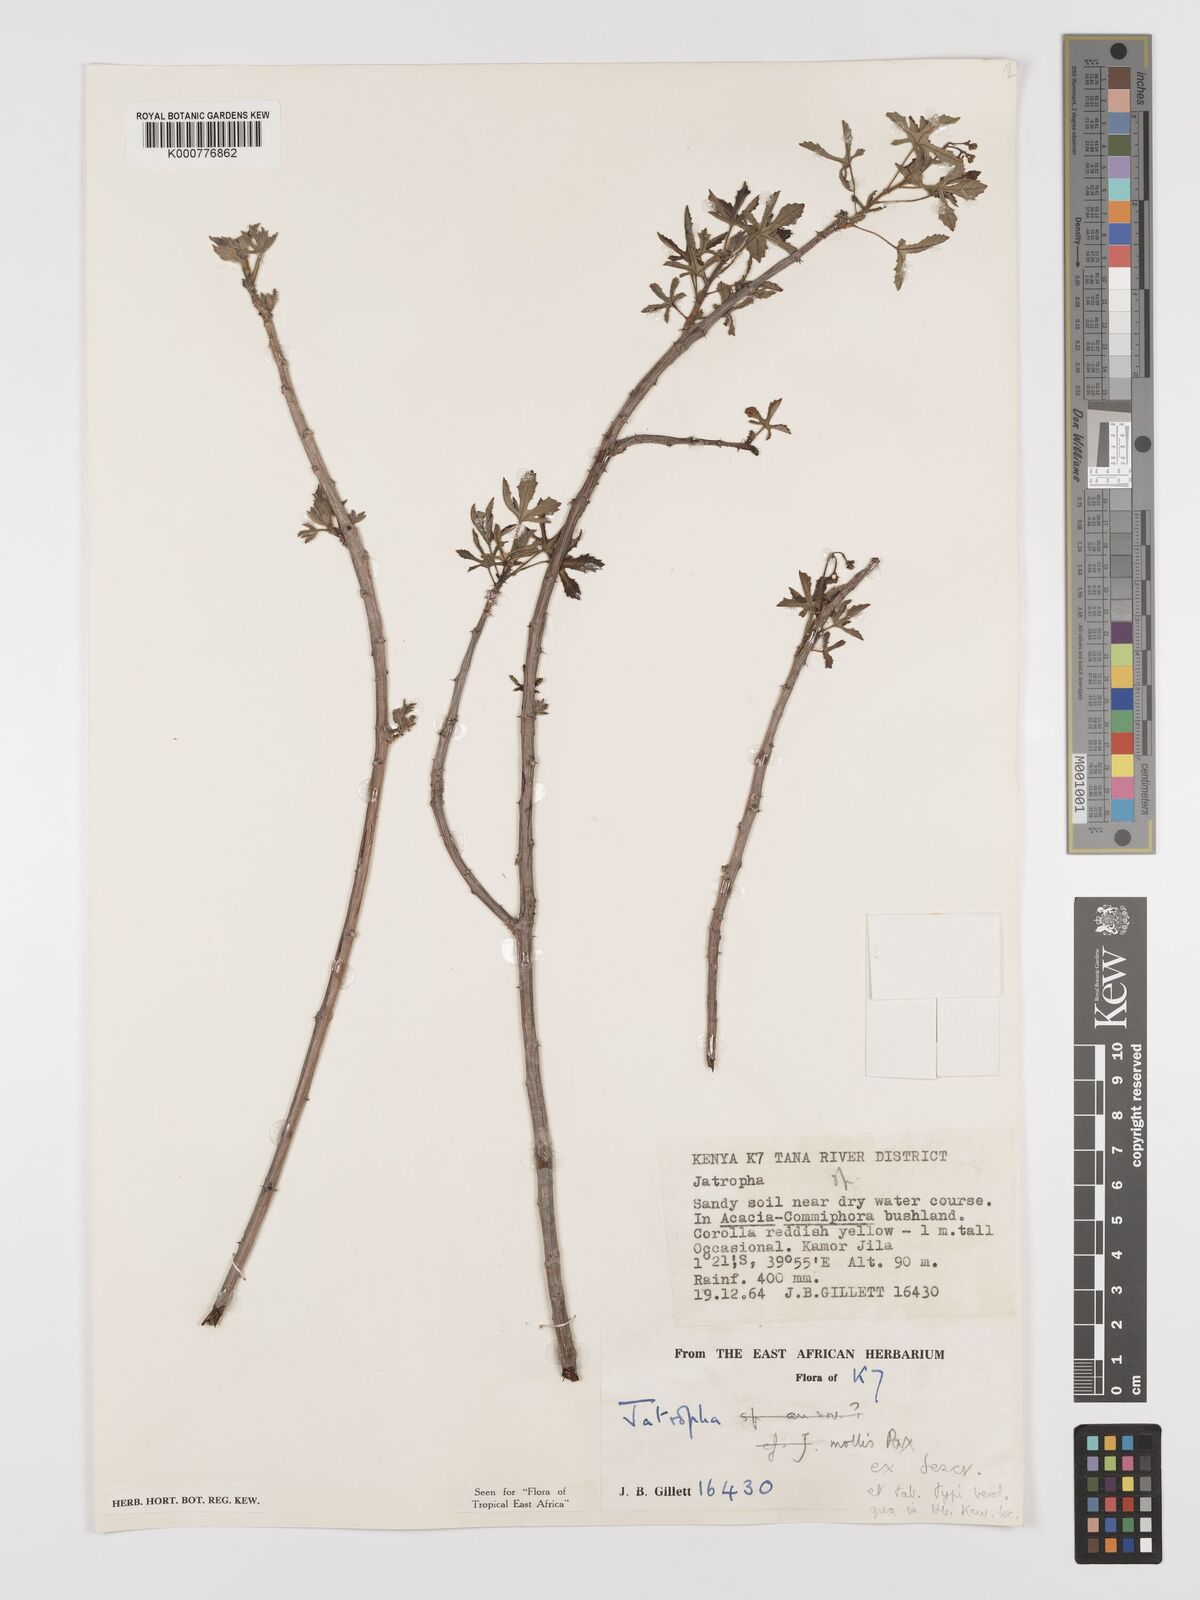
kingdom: Plantae
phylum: Tracheophyta
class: Magnoliopsida
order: Malpighiales
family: Euphorbiaceae
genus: Jatropha
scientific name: Jatropha mollis
